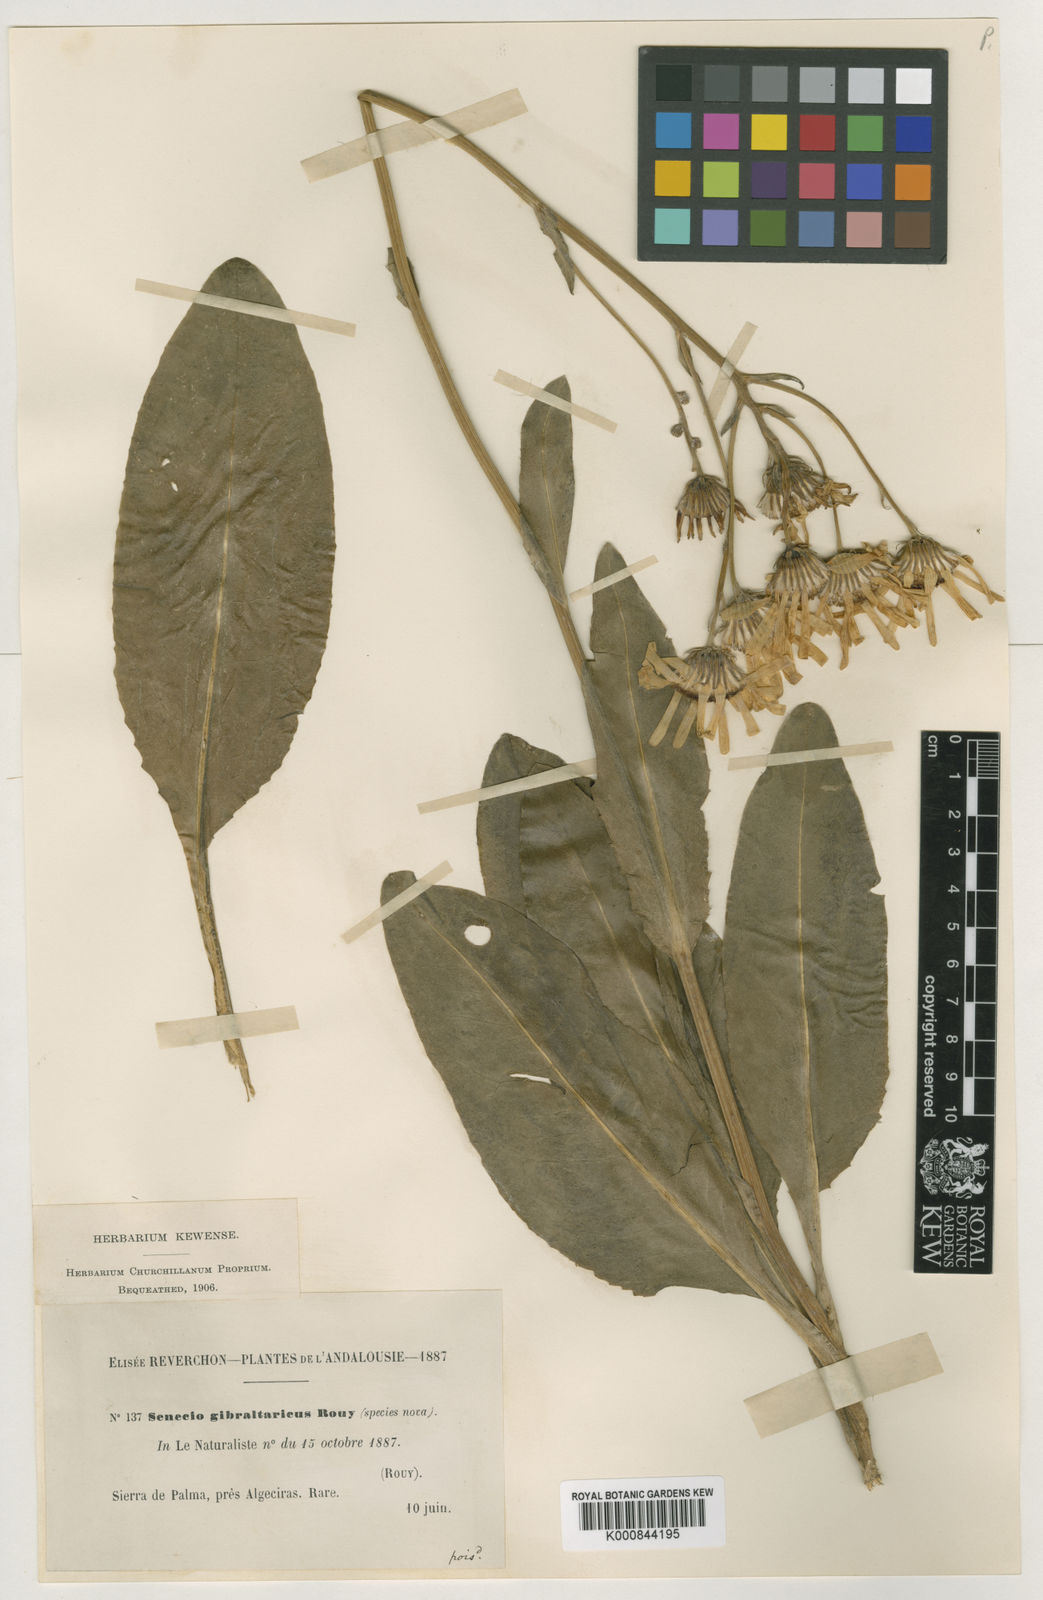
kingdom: Plantae
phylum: Tracheophyta
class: Magnoliopsida
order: Asterales
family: Asteraceae
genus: Senecio
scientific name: Senecio lopezii
